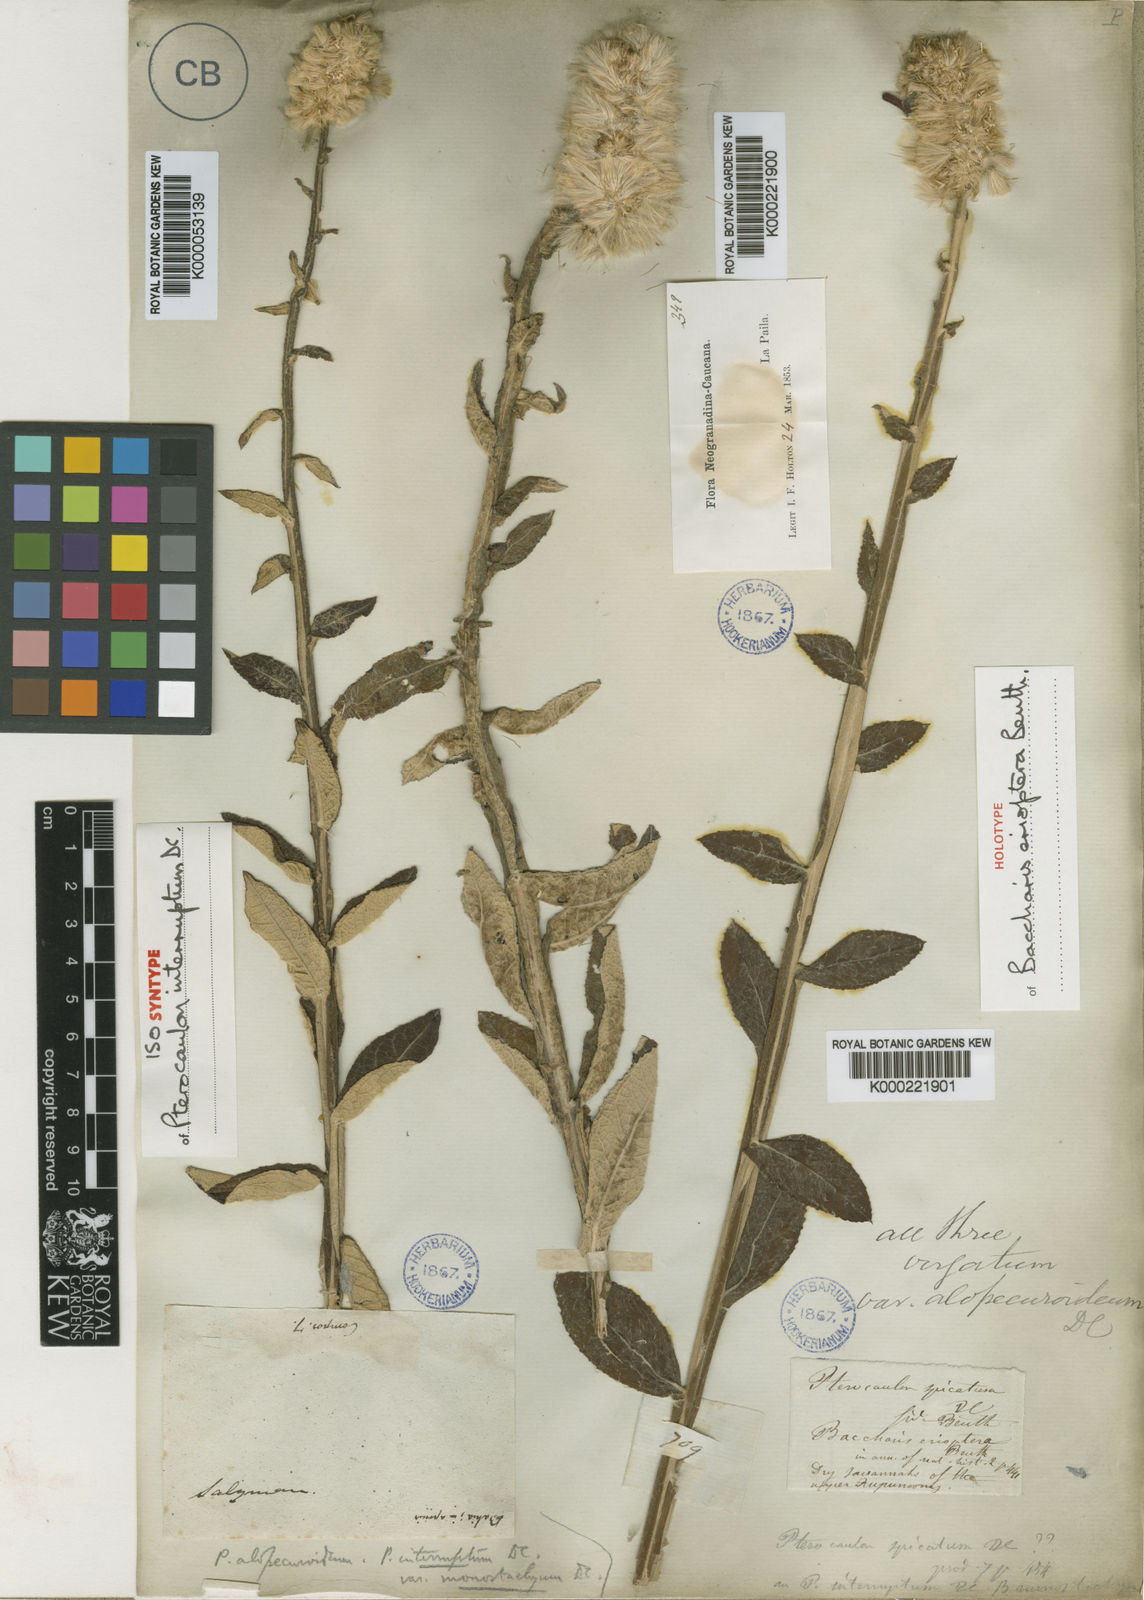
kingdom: Plantae
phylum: Tracheophyta
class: Magnoliopsida
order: Asterales
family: Asteraceae
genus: Pterocaulon
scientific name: Pterocaulon alopecuroides
